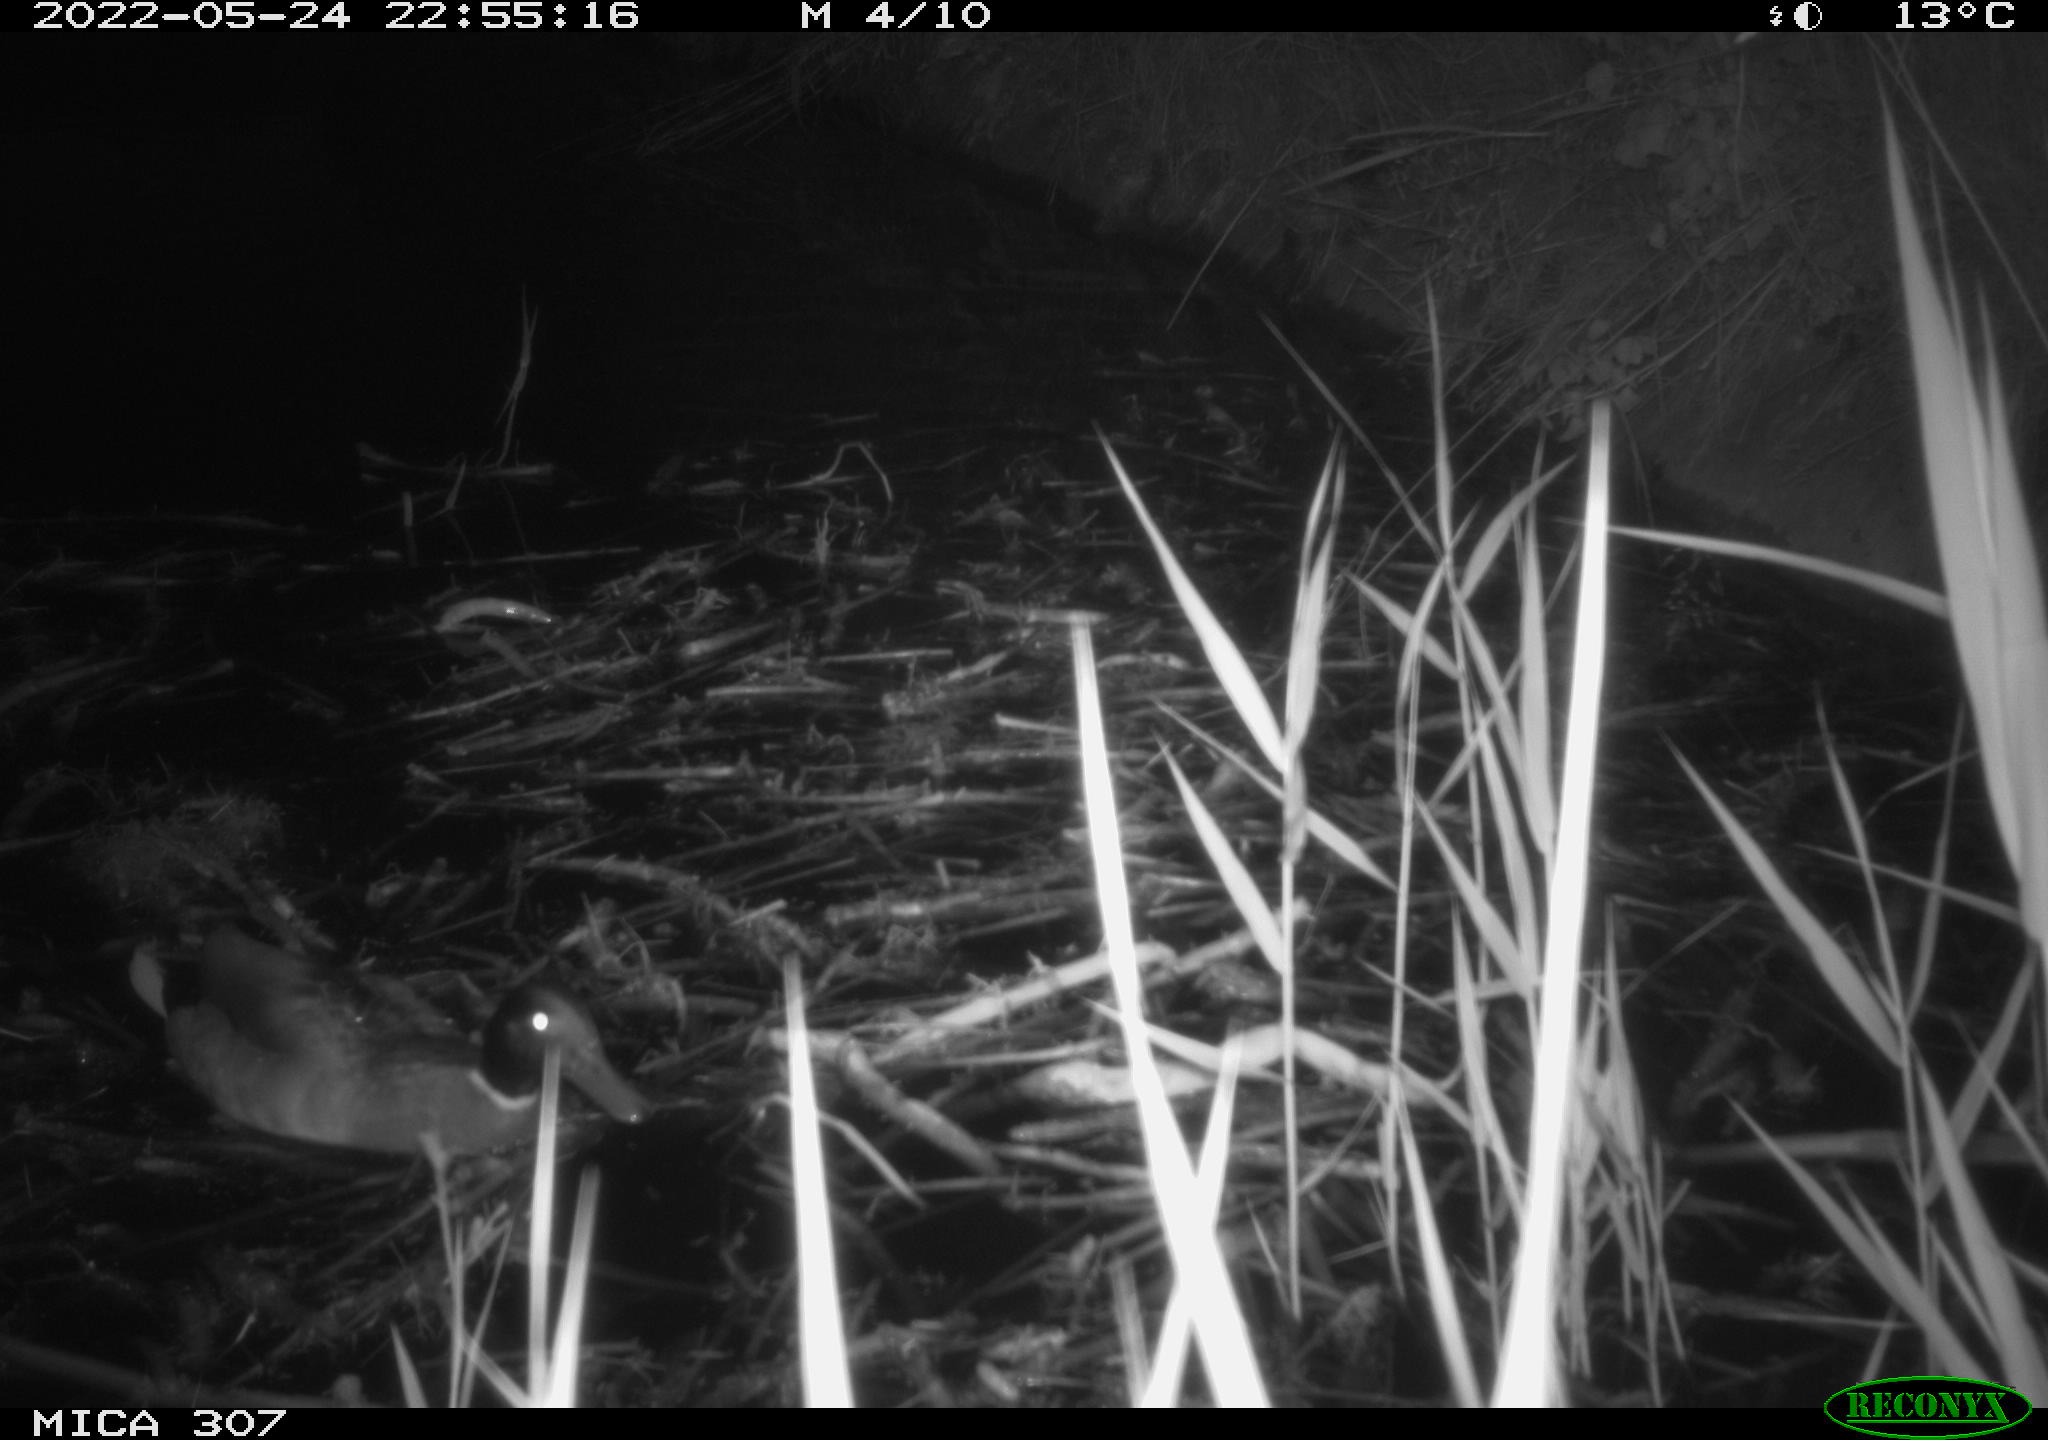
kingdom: Animalia
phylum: Chordata
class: Aves
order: Anseriformes
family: Anatidae
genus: Anas
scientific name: Anas platyrhynchos
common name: Mallard
